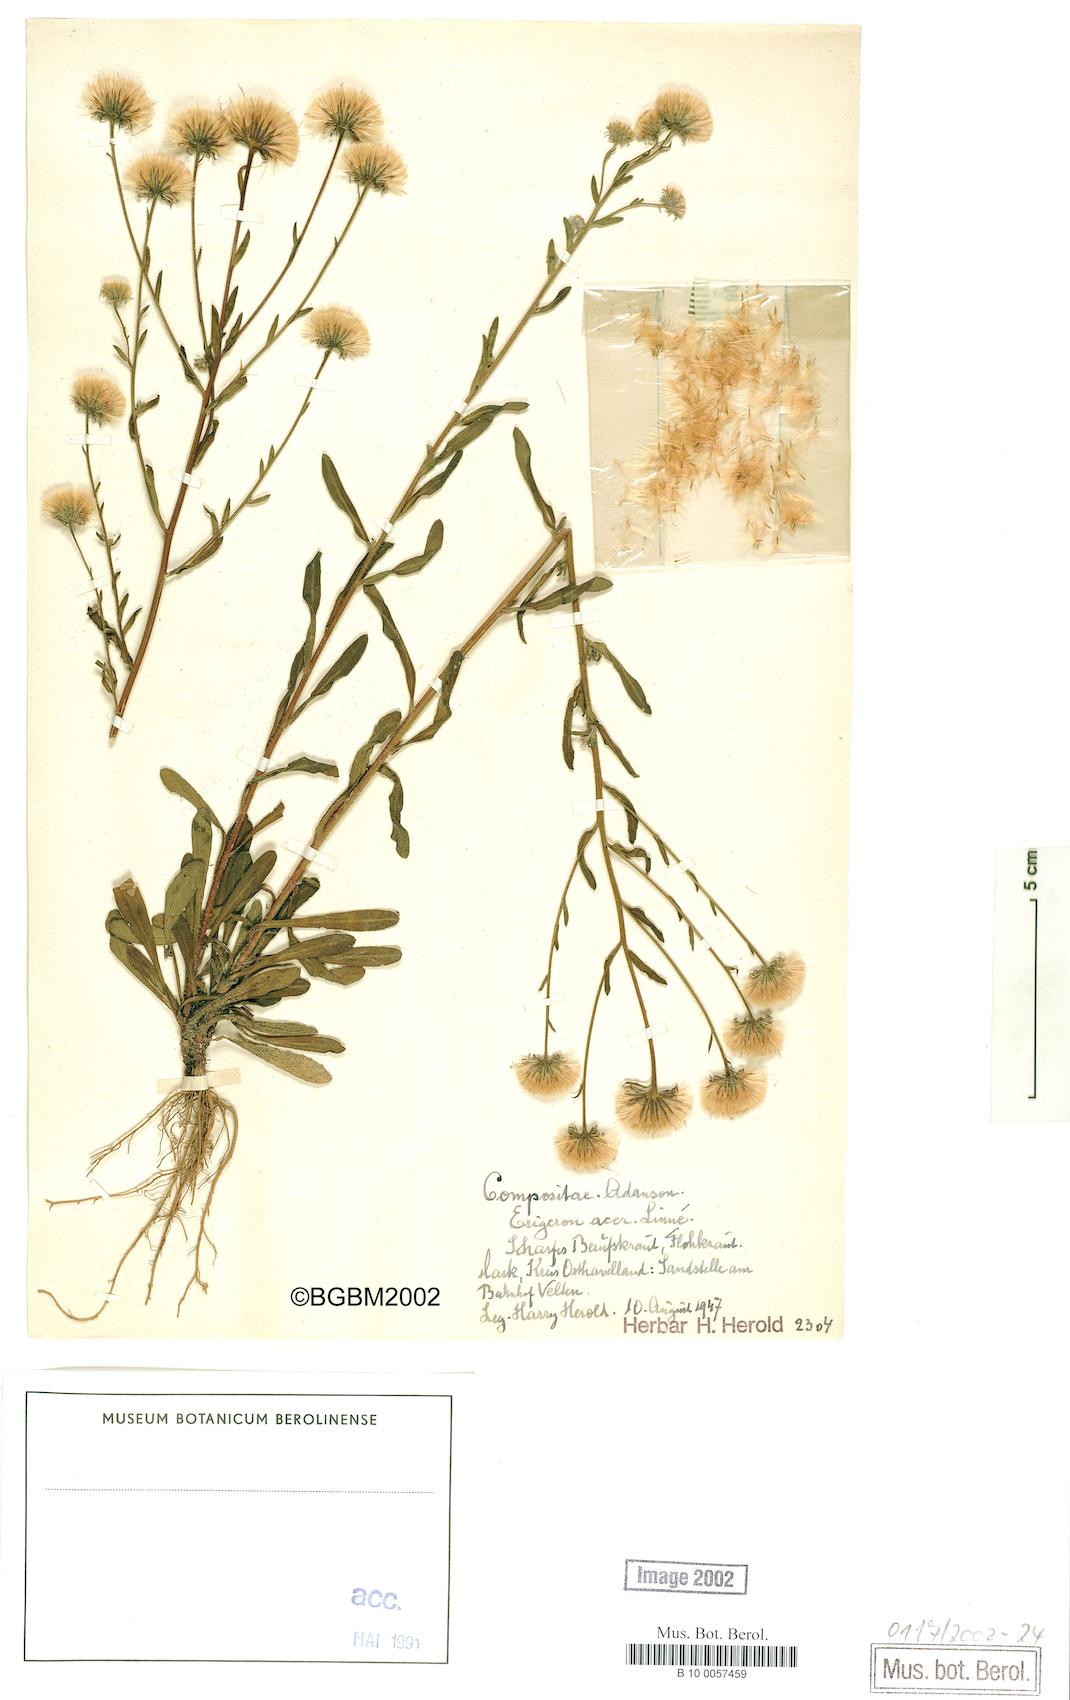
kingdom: Plantae
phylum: Tracheophyta
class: Magnoliopsida
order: Asterales
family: Asteraceae
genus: Erigeron
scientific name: Erigeron muralis
